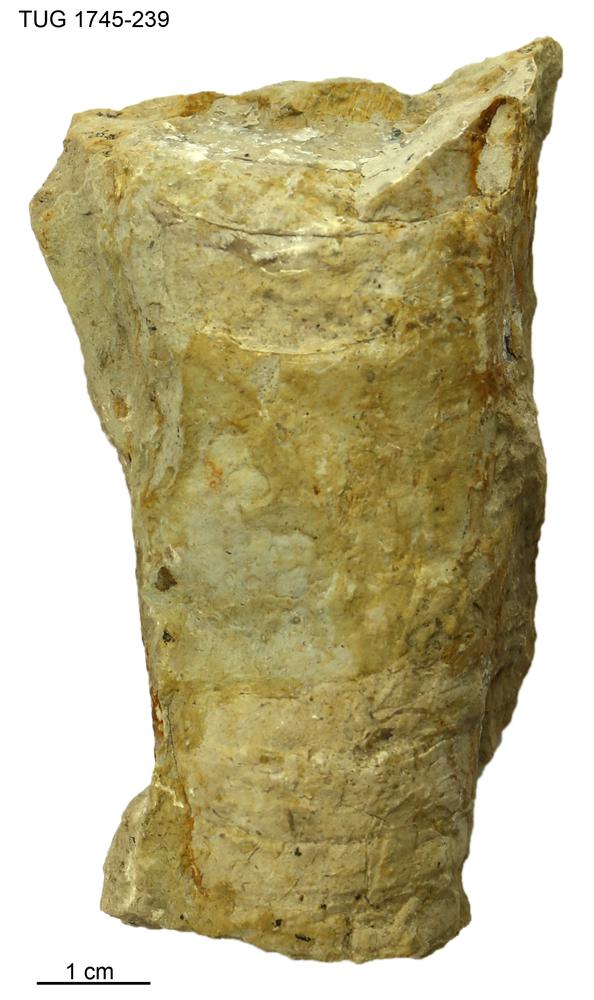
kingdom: Animalia
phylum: Mollusca
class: Cephalopoda
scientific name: Cephalopoda
